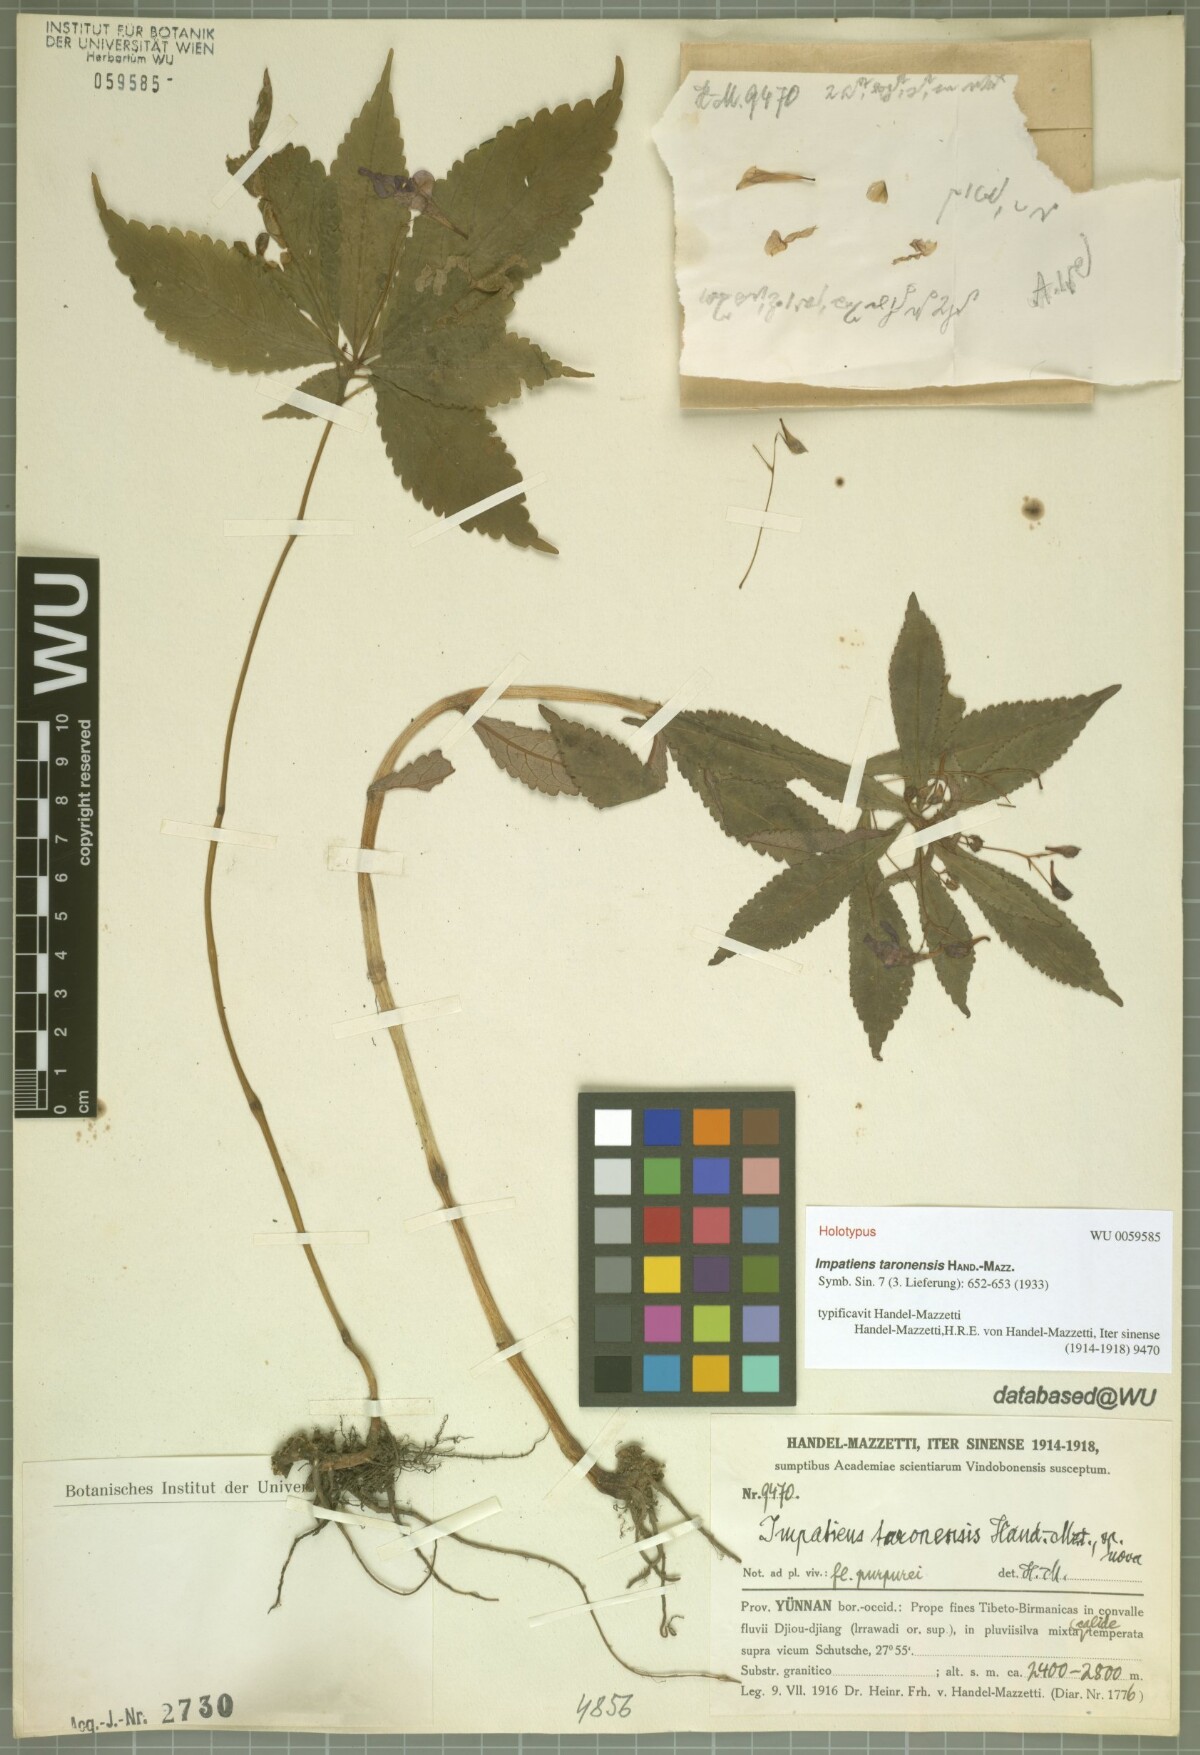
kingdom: Plantae
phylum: Tracheophyta
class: Magnoliopsida
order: Ericales
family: Balsaminaceae
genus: Impatiens
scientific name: Impatiens prainii
